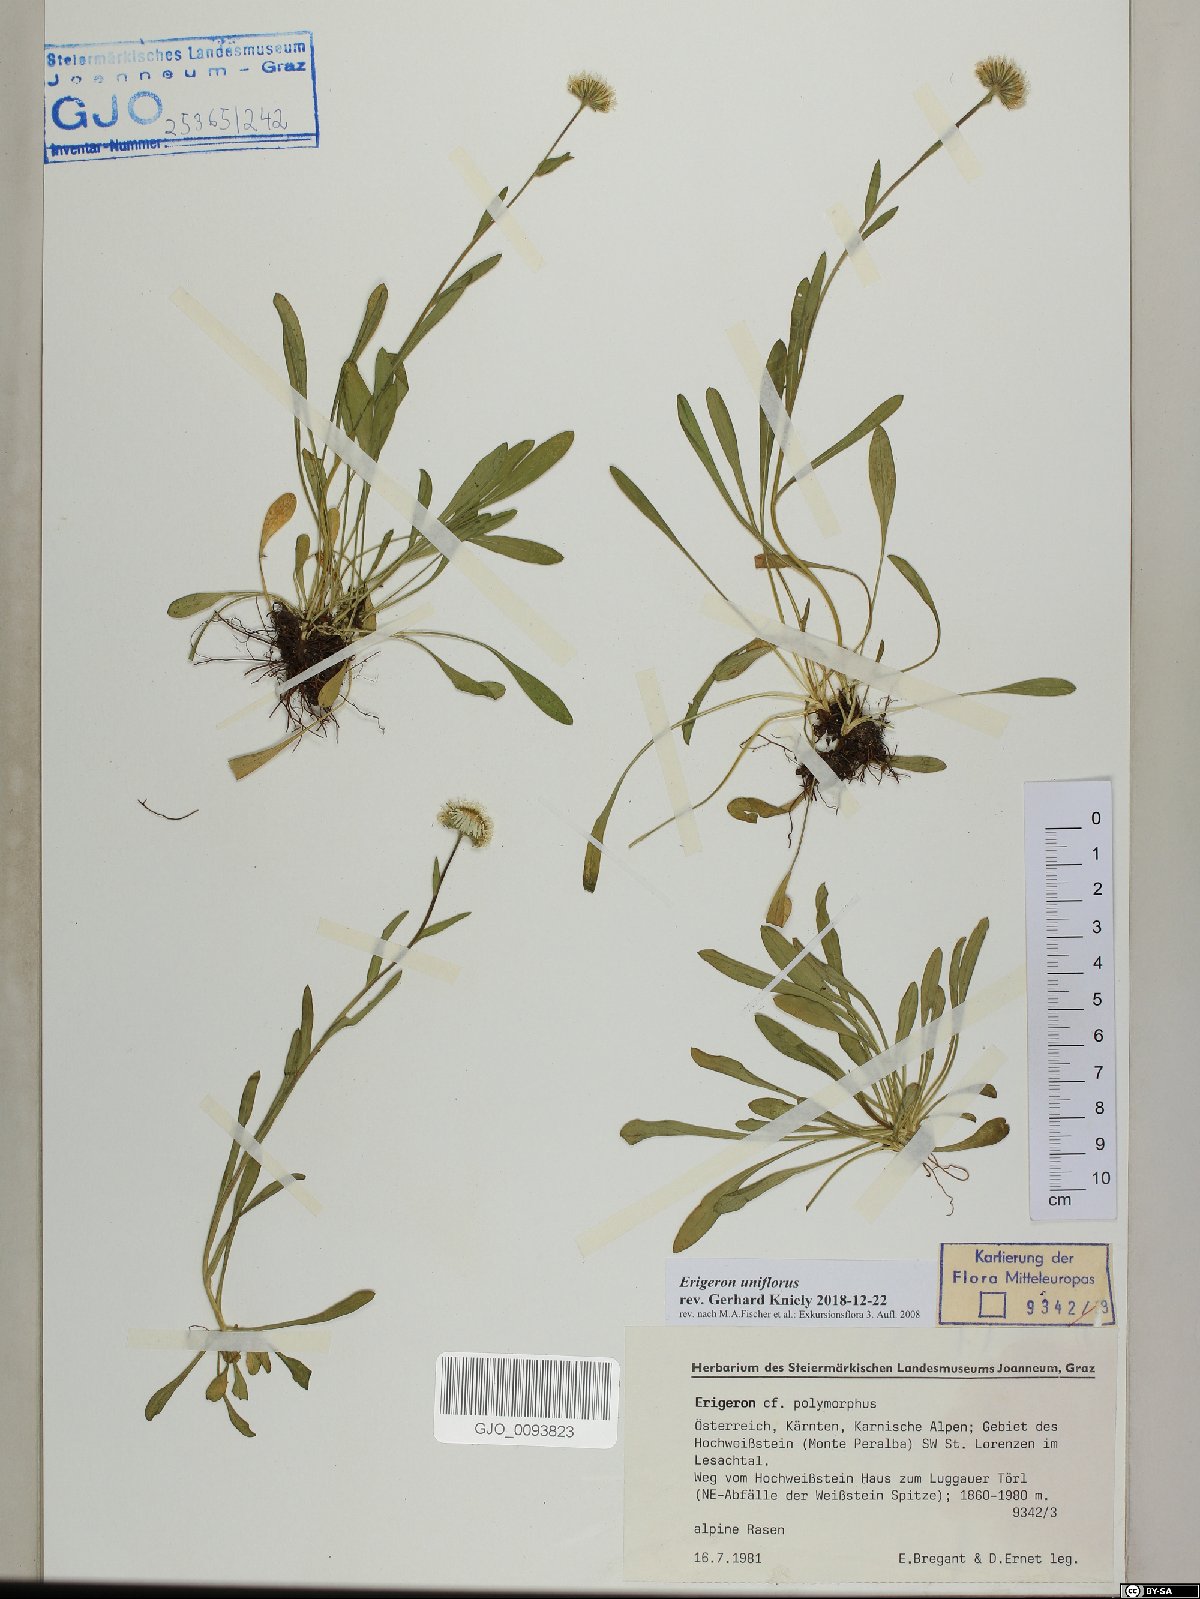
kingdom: Plantae
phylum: Tracheophyta
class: Magnoliopsida
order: Asterales
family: Asteraceae
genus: Erigeron
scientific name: Erigeron uniflorus
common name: Northern daisy
